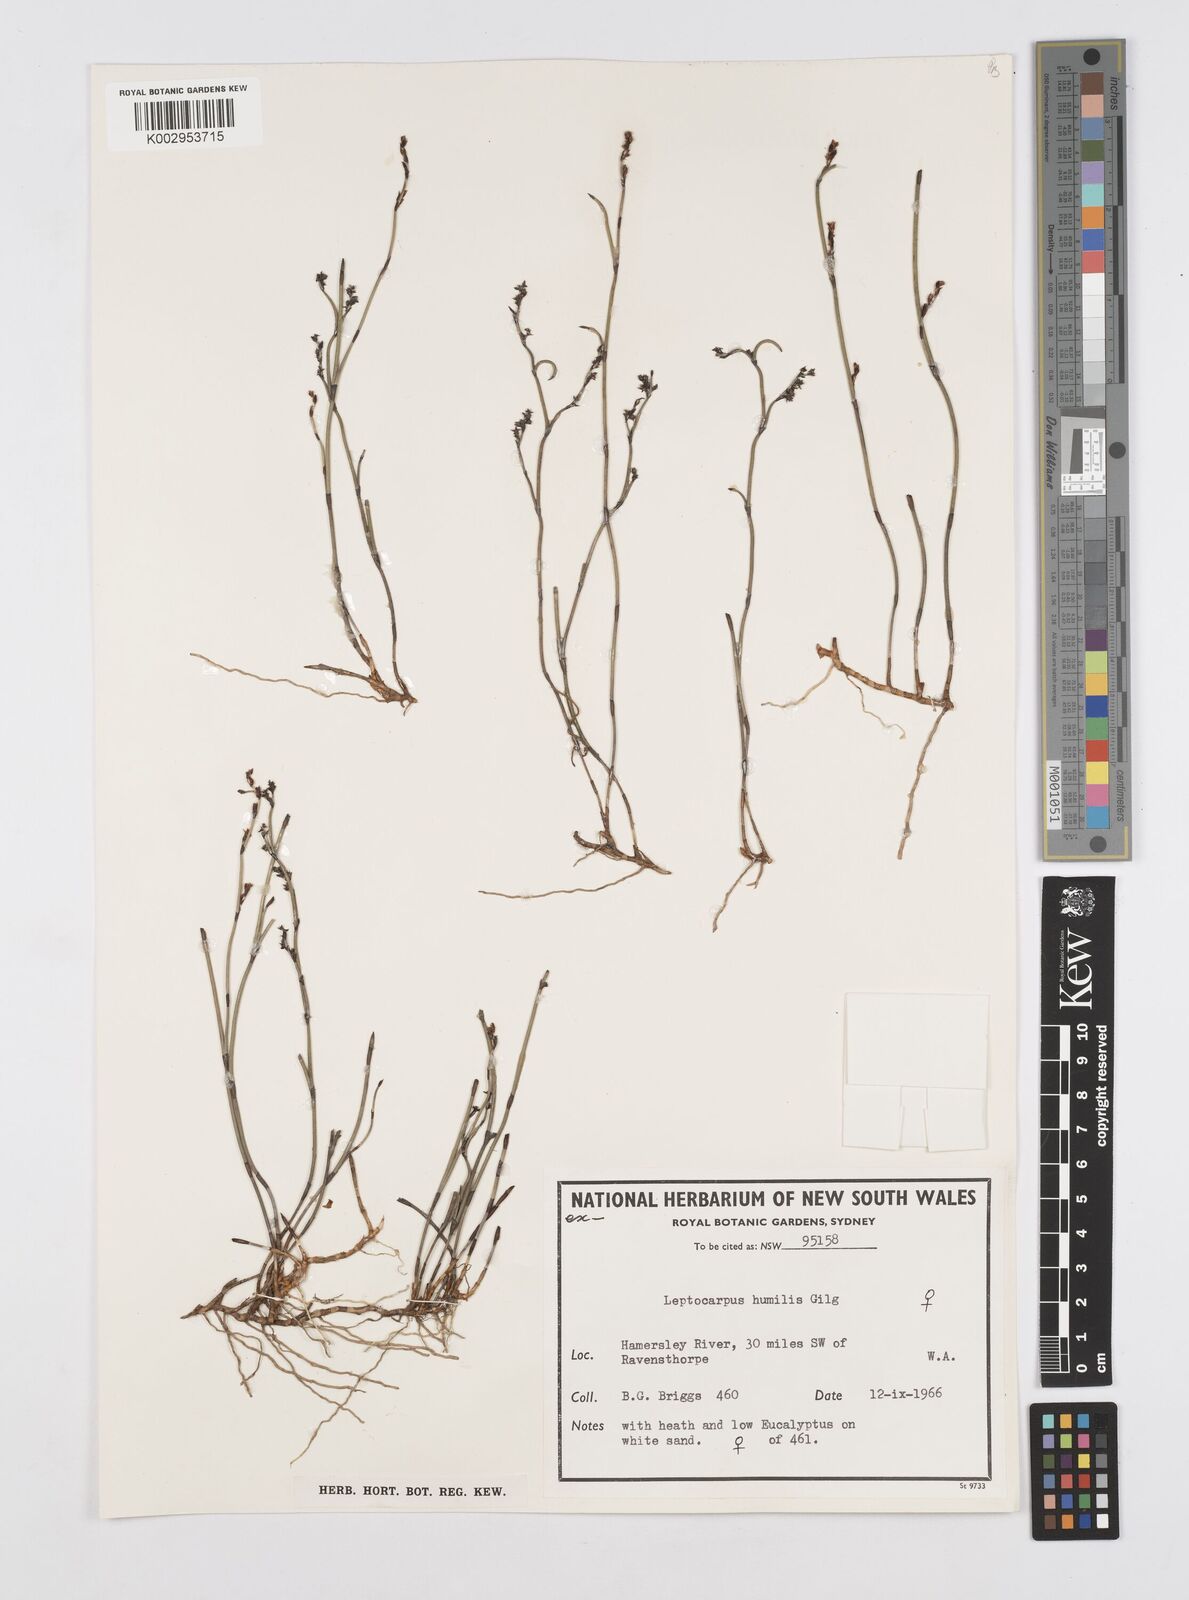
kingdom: Plantae
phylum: Tracheophyta
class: Liliopsida
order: Poales
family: Restionaceae
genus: Hypolaena
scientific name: Hypolaena humilis
